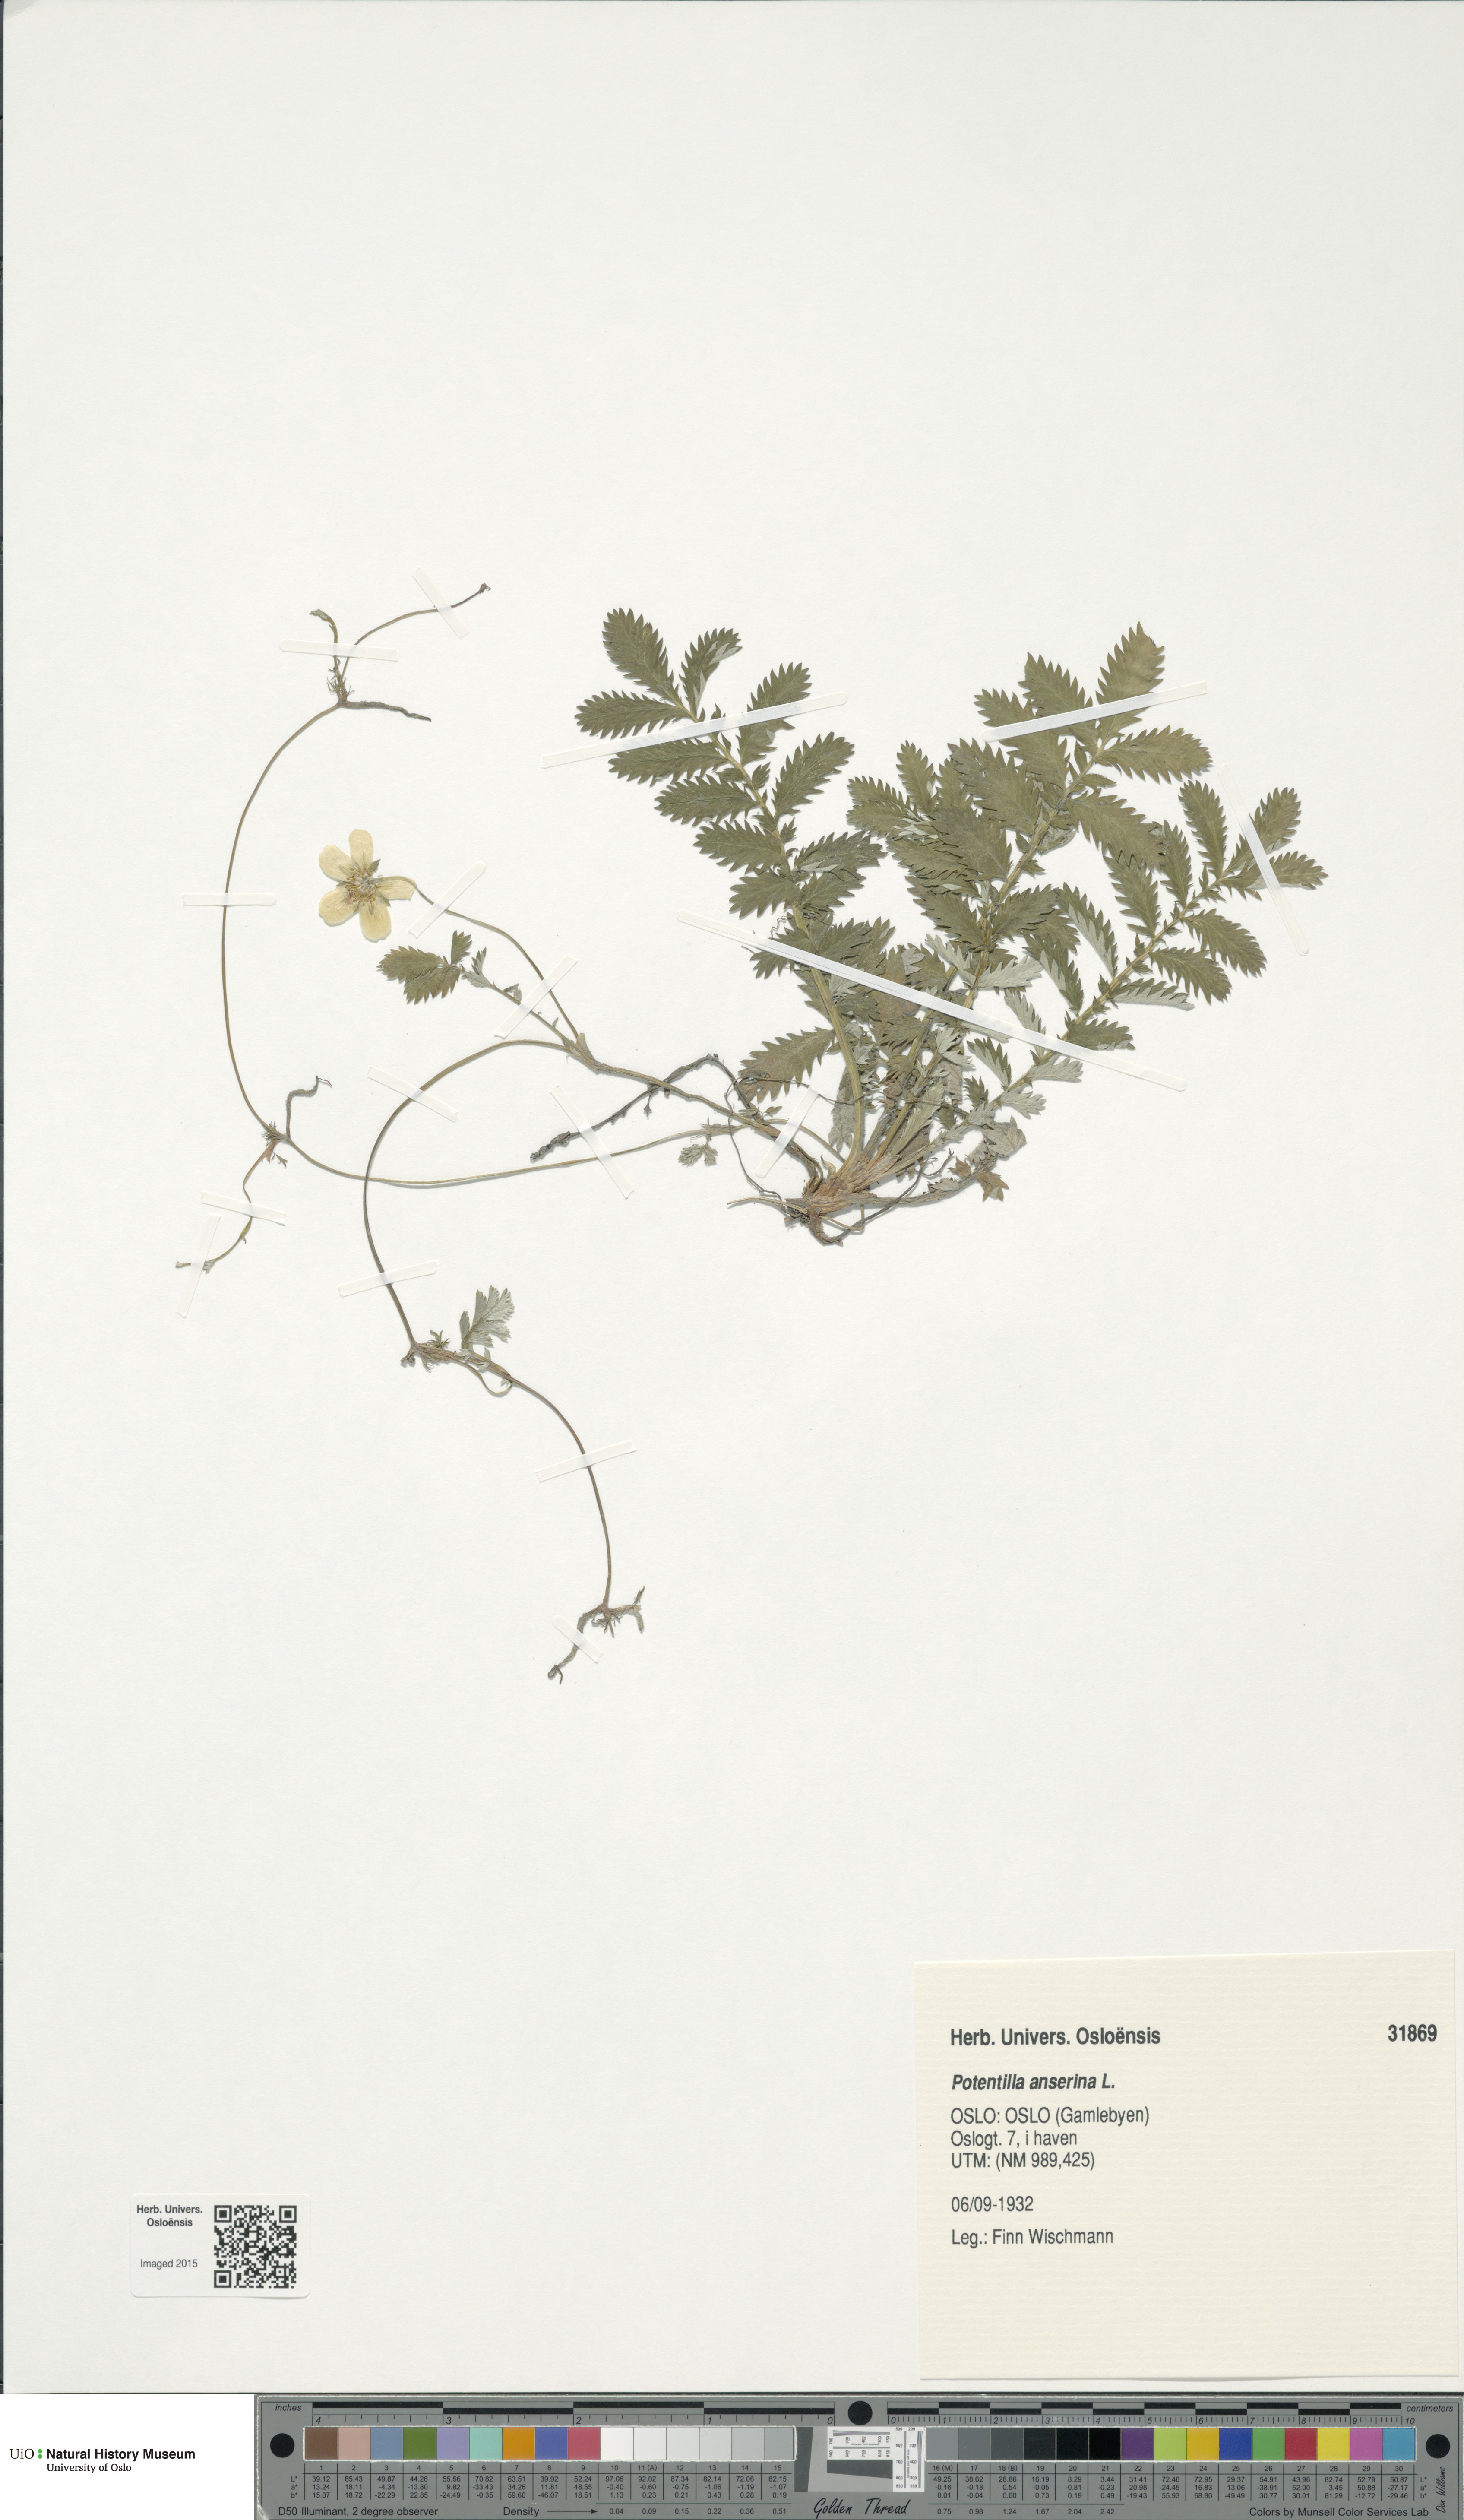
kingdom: Plantae
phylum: Tracheophyta
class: Magnoliopsida
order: Rosales
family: Rosaceae
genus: Argentina
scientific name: Argentina anserina
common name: Common silverweed
